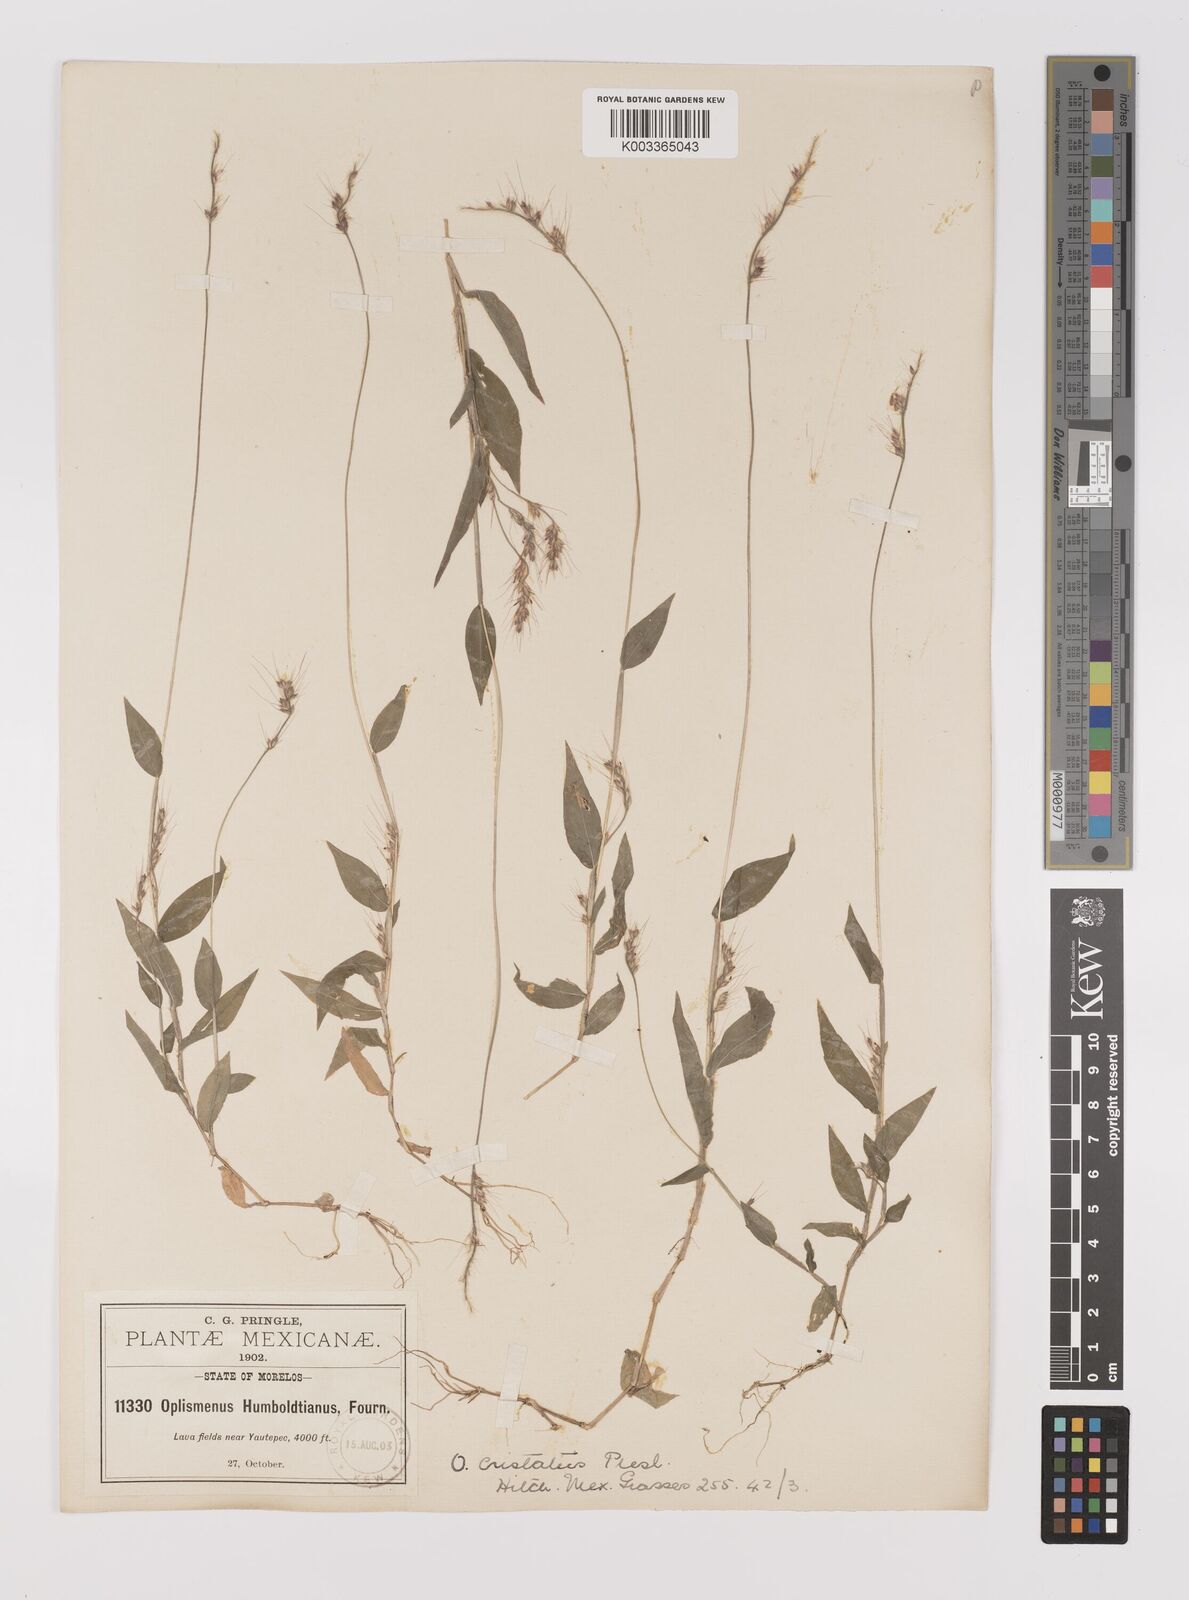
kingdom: Plantae
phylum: Tracheophyta
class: Liliopsida
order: Poales
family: Poaceae
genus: Oplismenus
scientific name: Oplismenus burmanni
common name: Burmann's basketgrass
